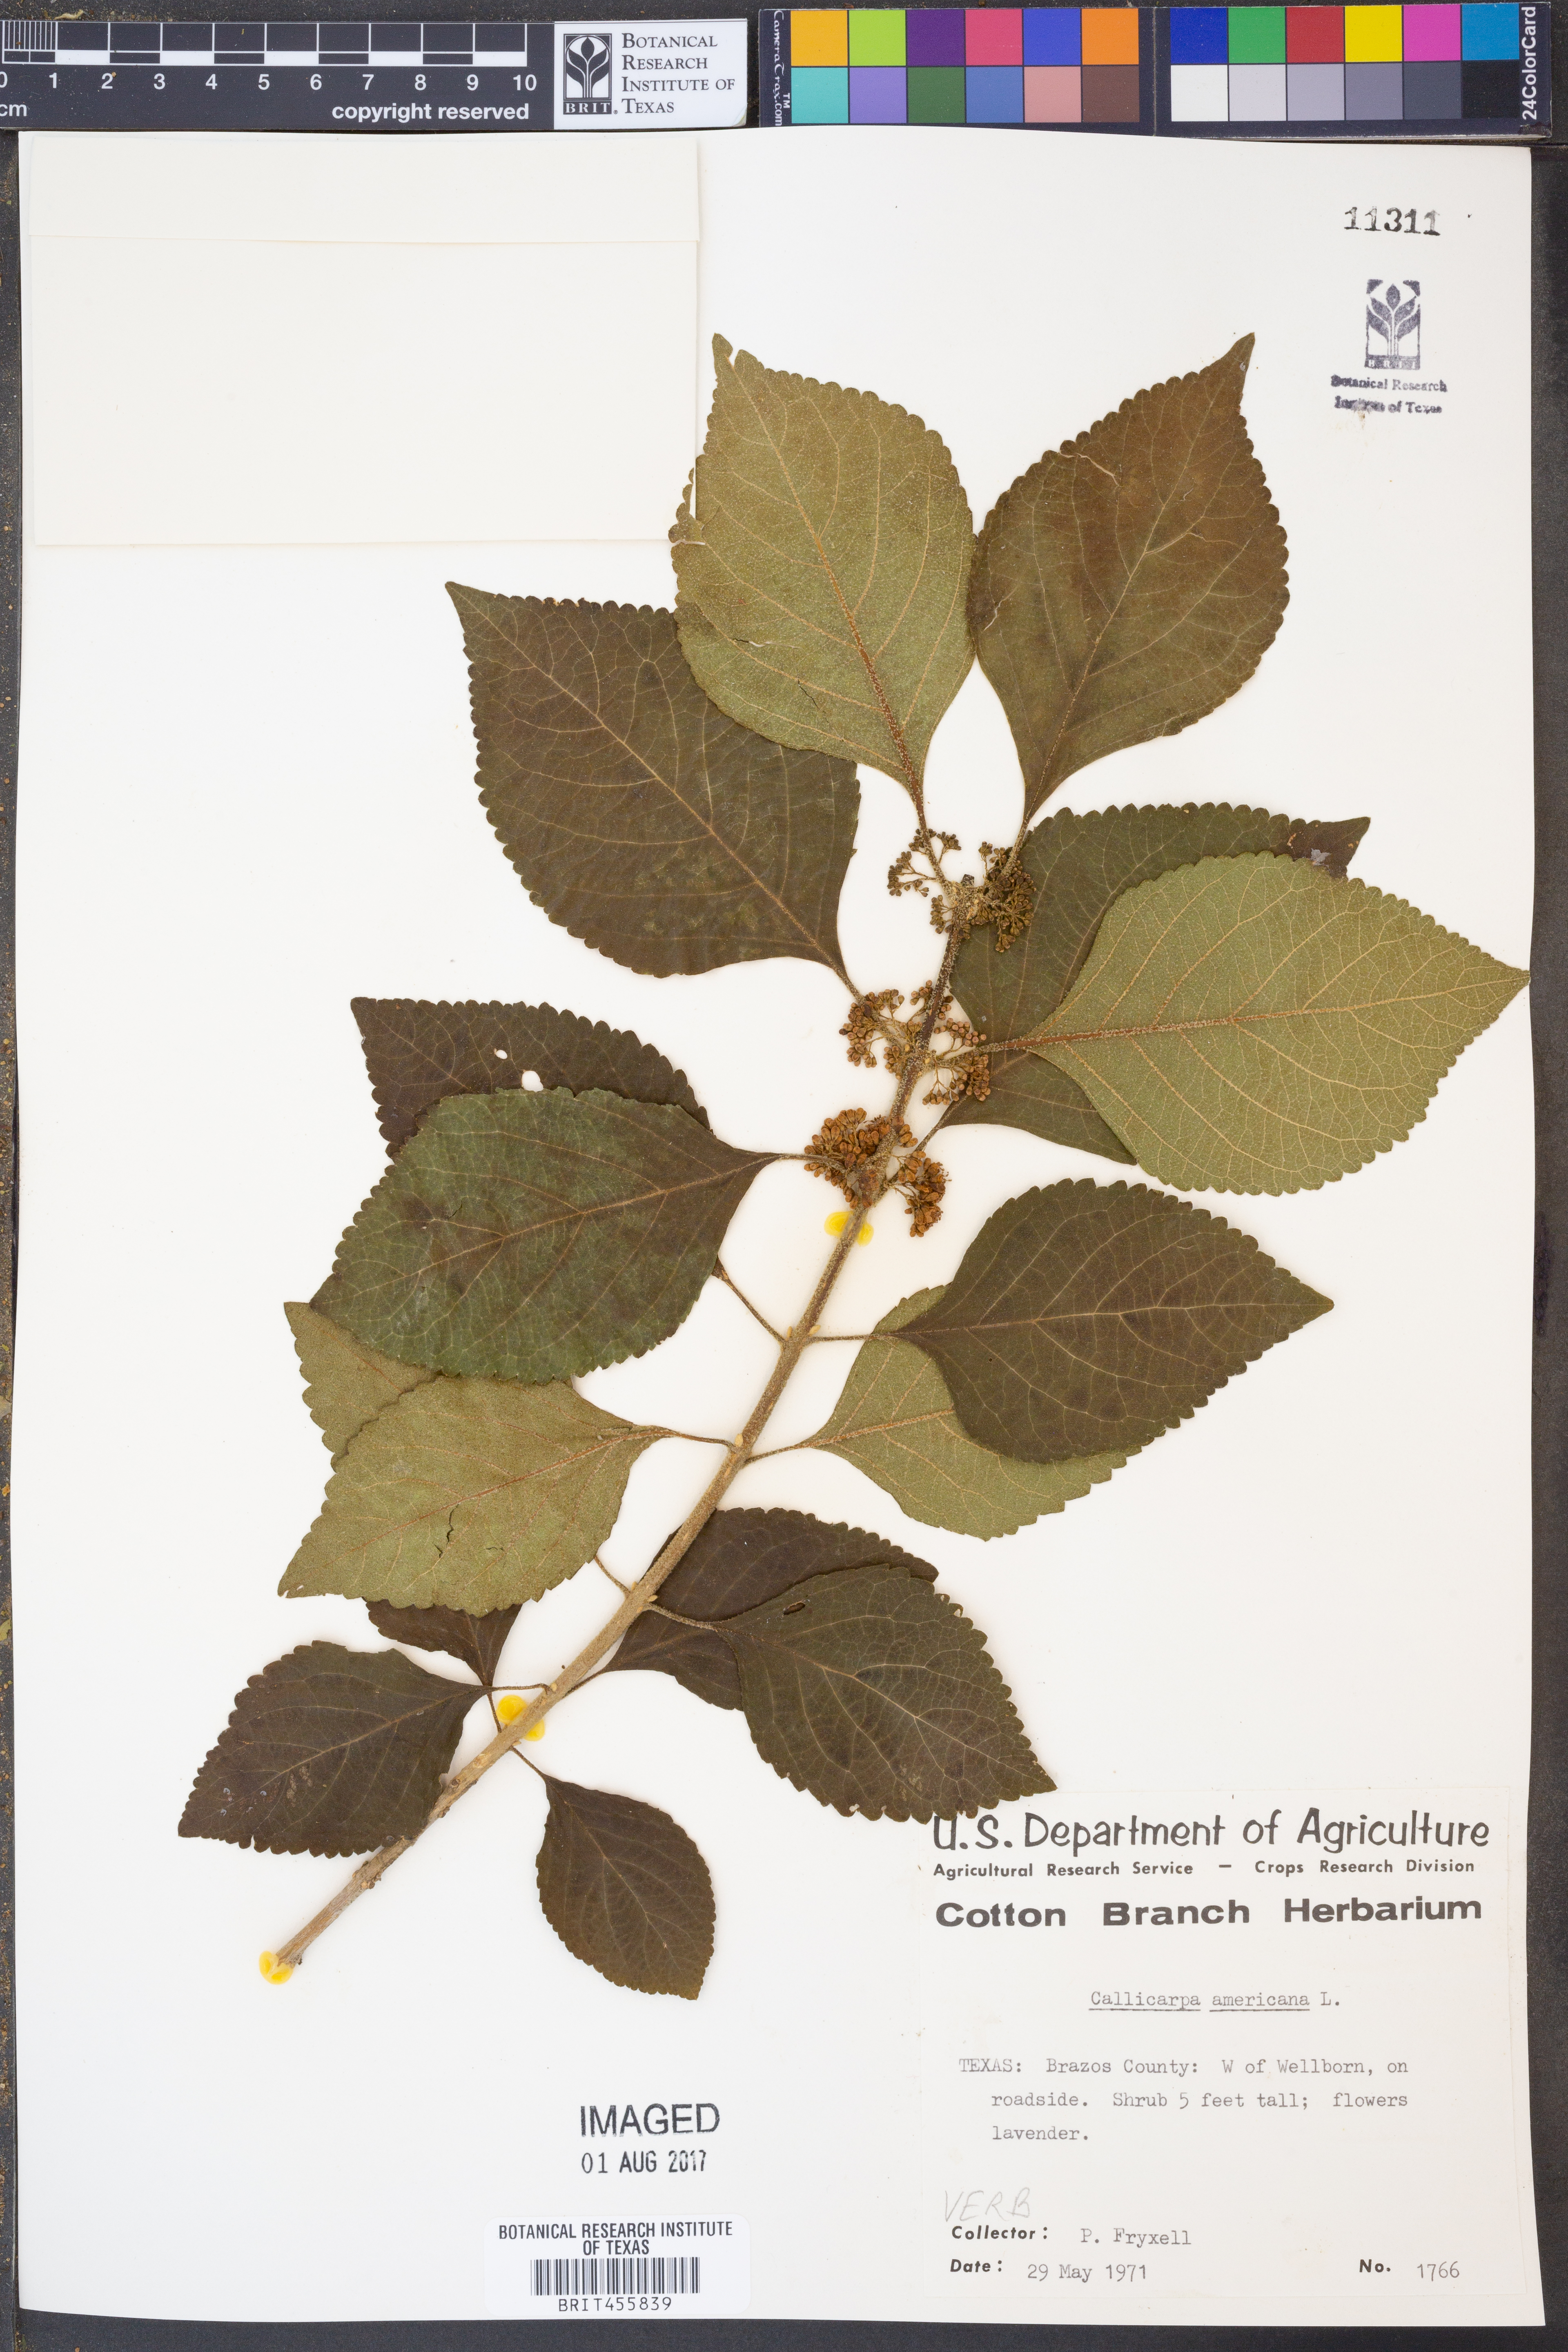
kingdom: Plantae
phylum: Tracheophyta
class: Magnoliopsida
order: Lamiales
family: Lamiaceae
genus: Callicarpa
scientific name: Callicarpa americana
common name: American beautyberry
